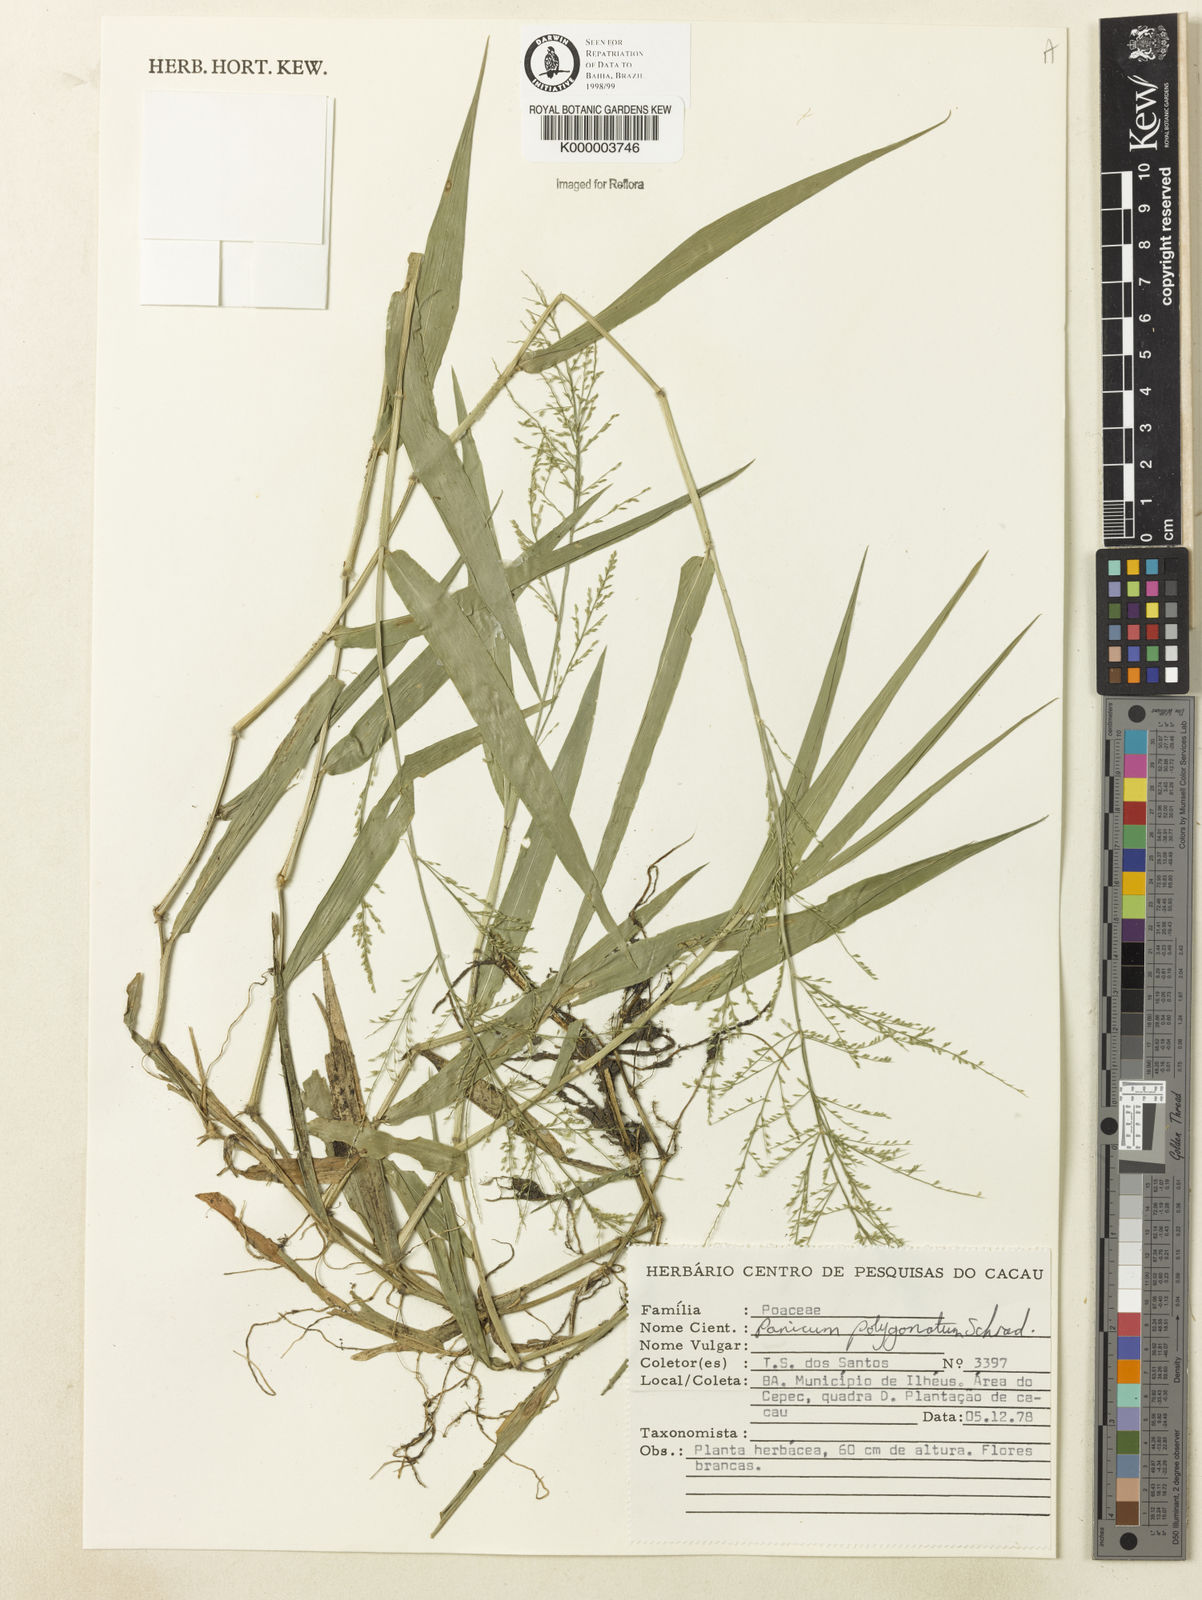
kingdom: Plantae
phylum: Tracheophyta
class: Liliopsida
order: Poales
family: Poaceae
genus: Rugoloa
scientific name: Rugoloa polygonata
